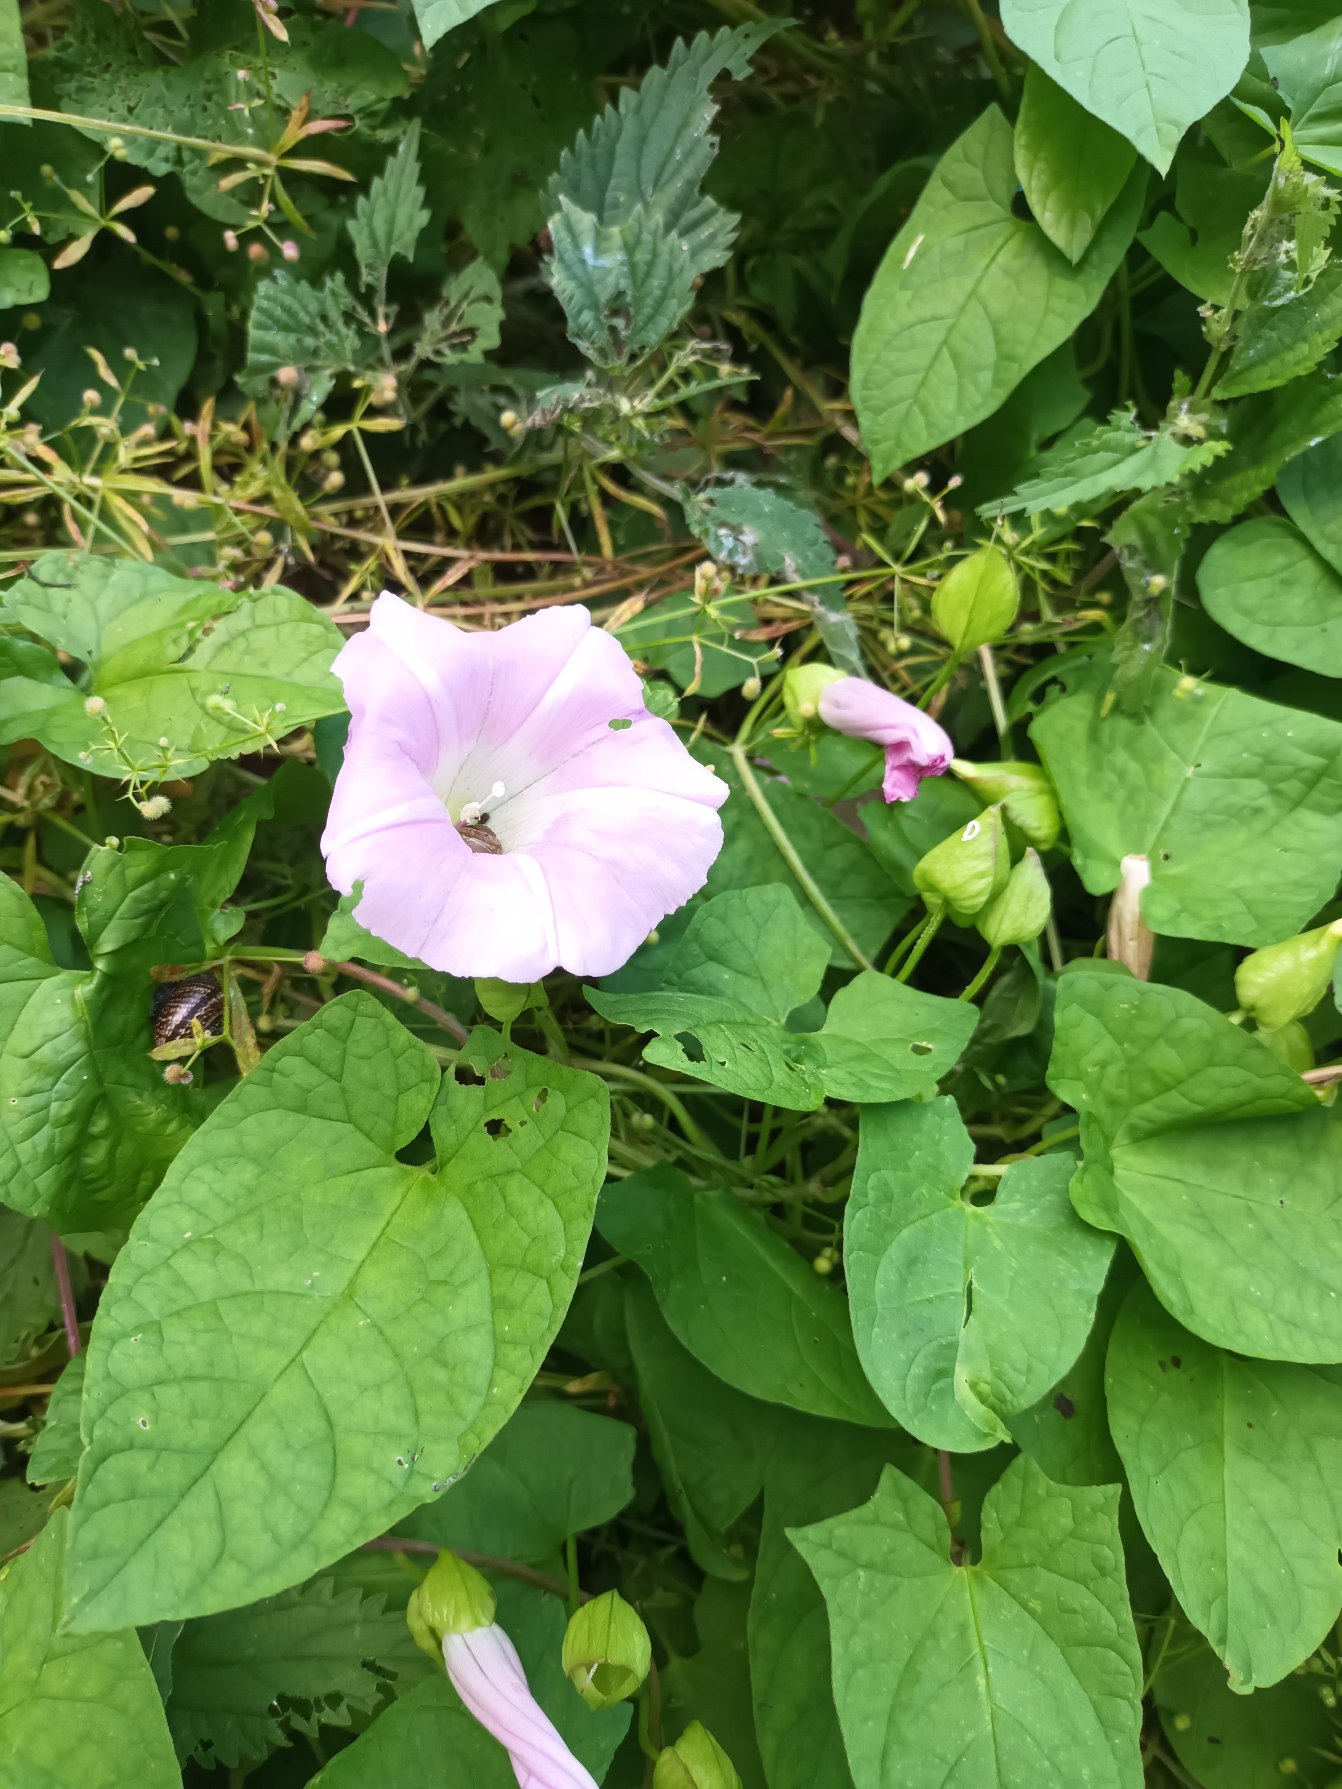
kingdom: Plantae
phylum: Tracheophyta
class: Magnoliopsida
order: Solanales
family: Convolvulaceae
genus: Calystegia
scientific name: Calystegia pulchra
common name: Have-snerle
